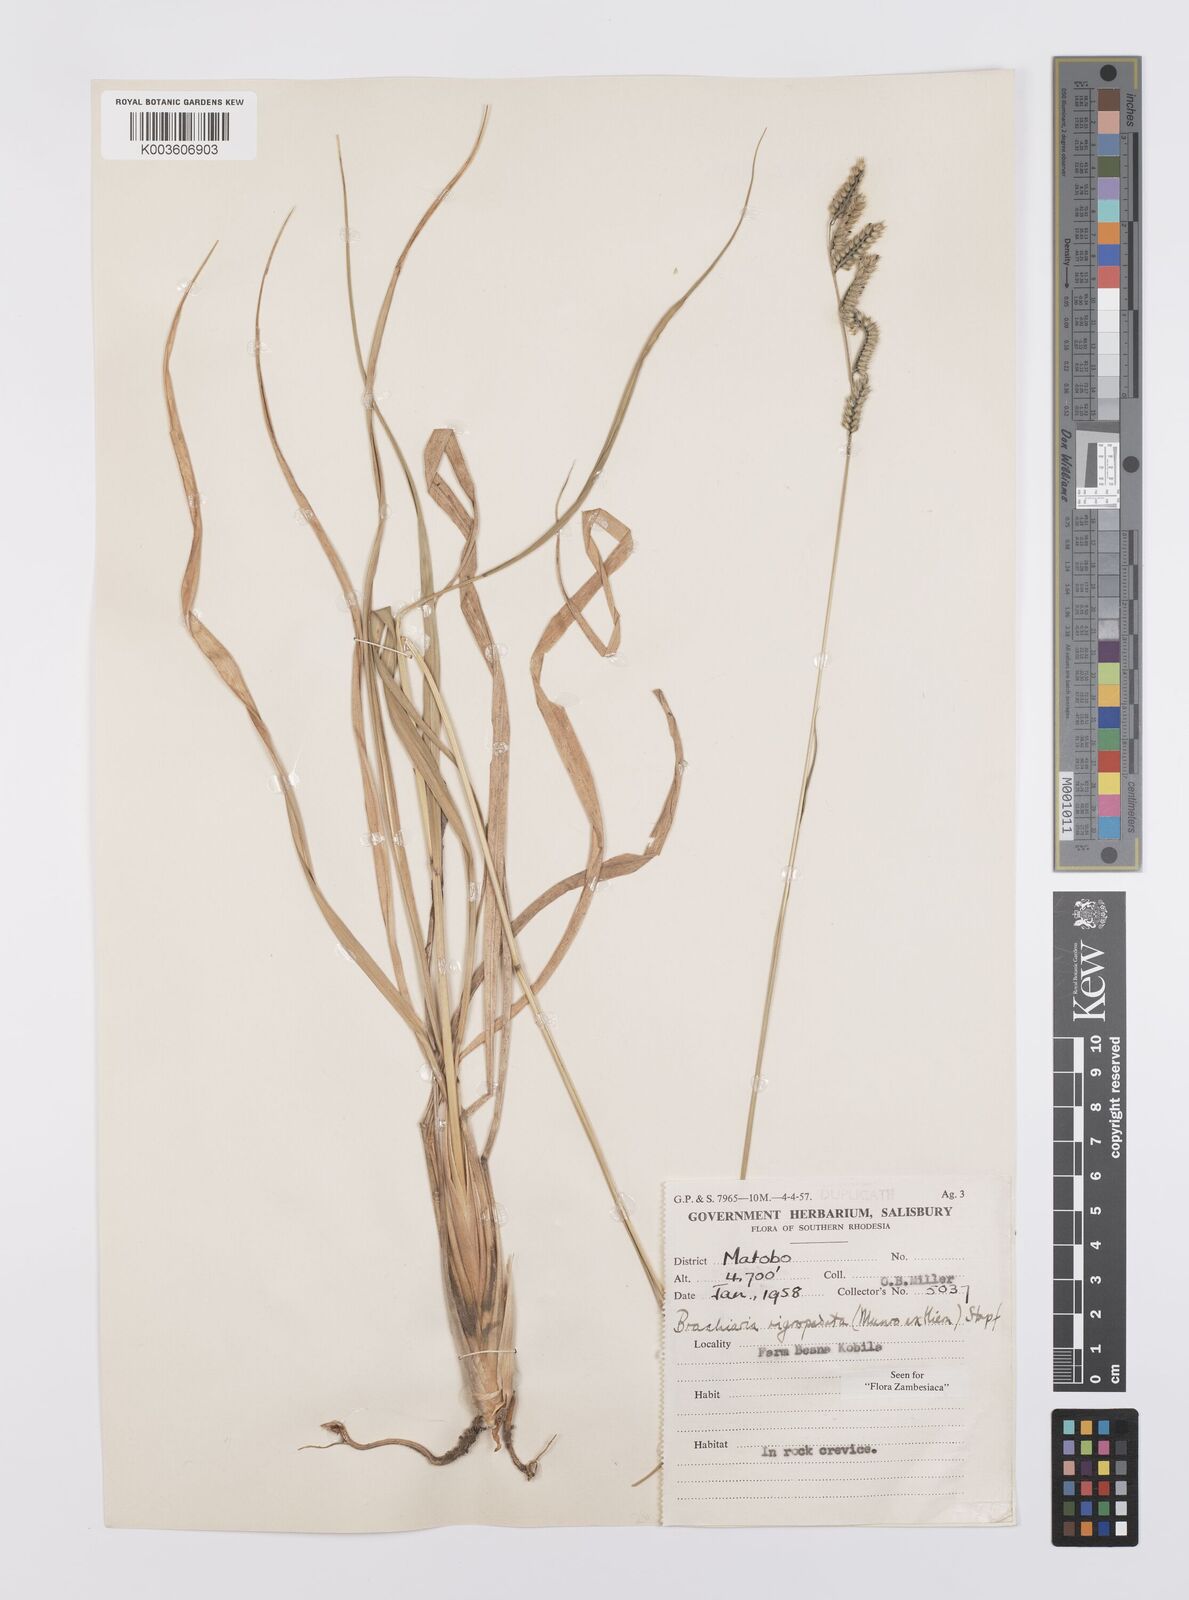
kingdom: Plantae
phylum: Tracheophyta
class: Liliopsida
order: Poales
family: Poaceae
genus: Urochloa
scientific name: Urochloa nigropedata
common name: Spotted signal grass
